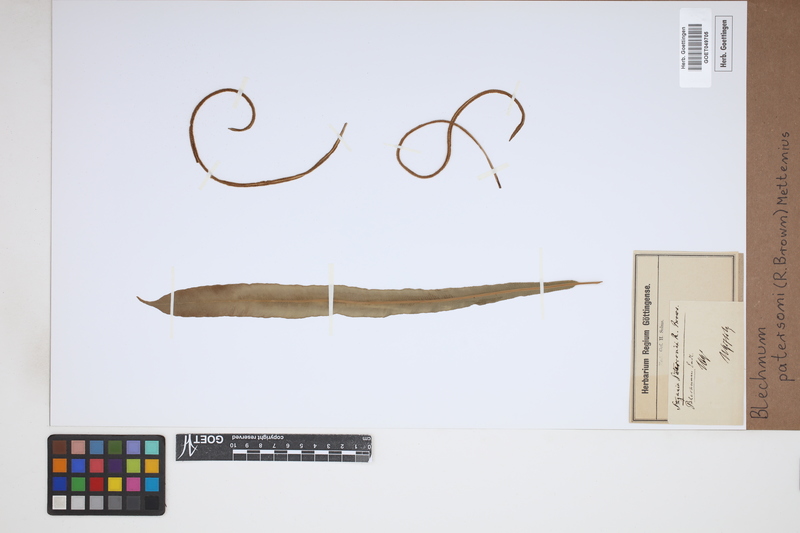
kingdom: Plantae
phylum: Tracheophyta
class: Polypodiopsida
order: Polypodiales
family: Blechnaceae
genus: Austroblechnum
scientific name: Austroblechnum patersonii
